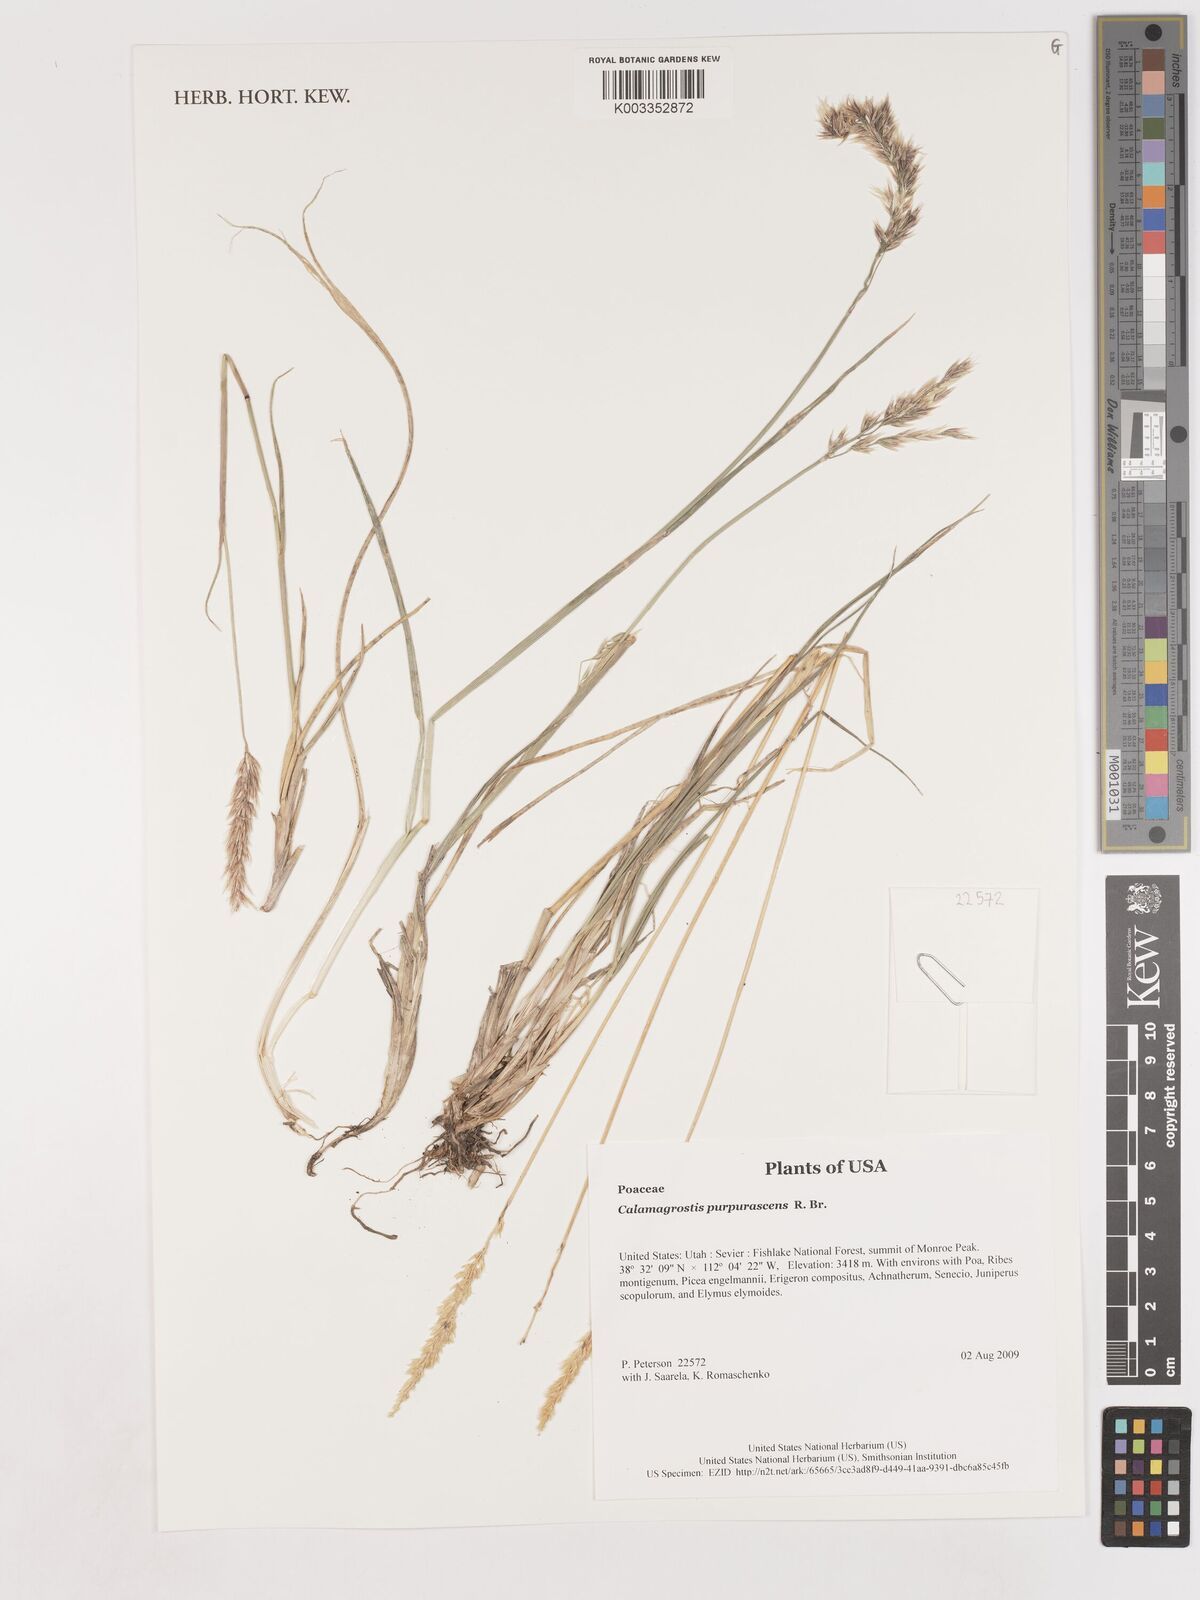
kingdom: Plantae
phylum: Tracheophyta
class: Liliopsida
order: Poales
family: Poaceae
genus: Calamagrostis
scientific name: Calamagrostis purpurascens
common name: Purple reedgrass
